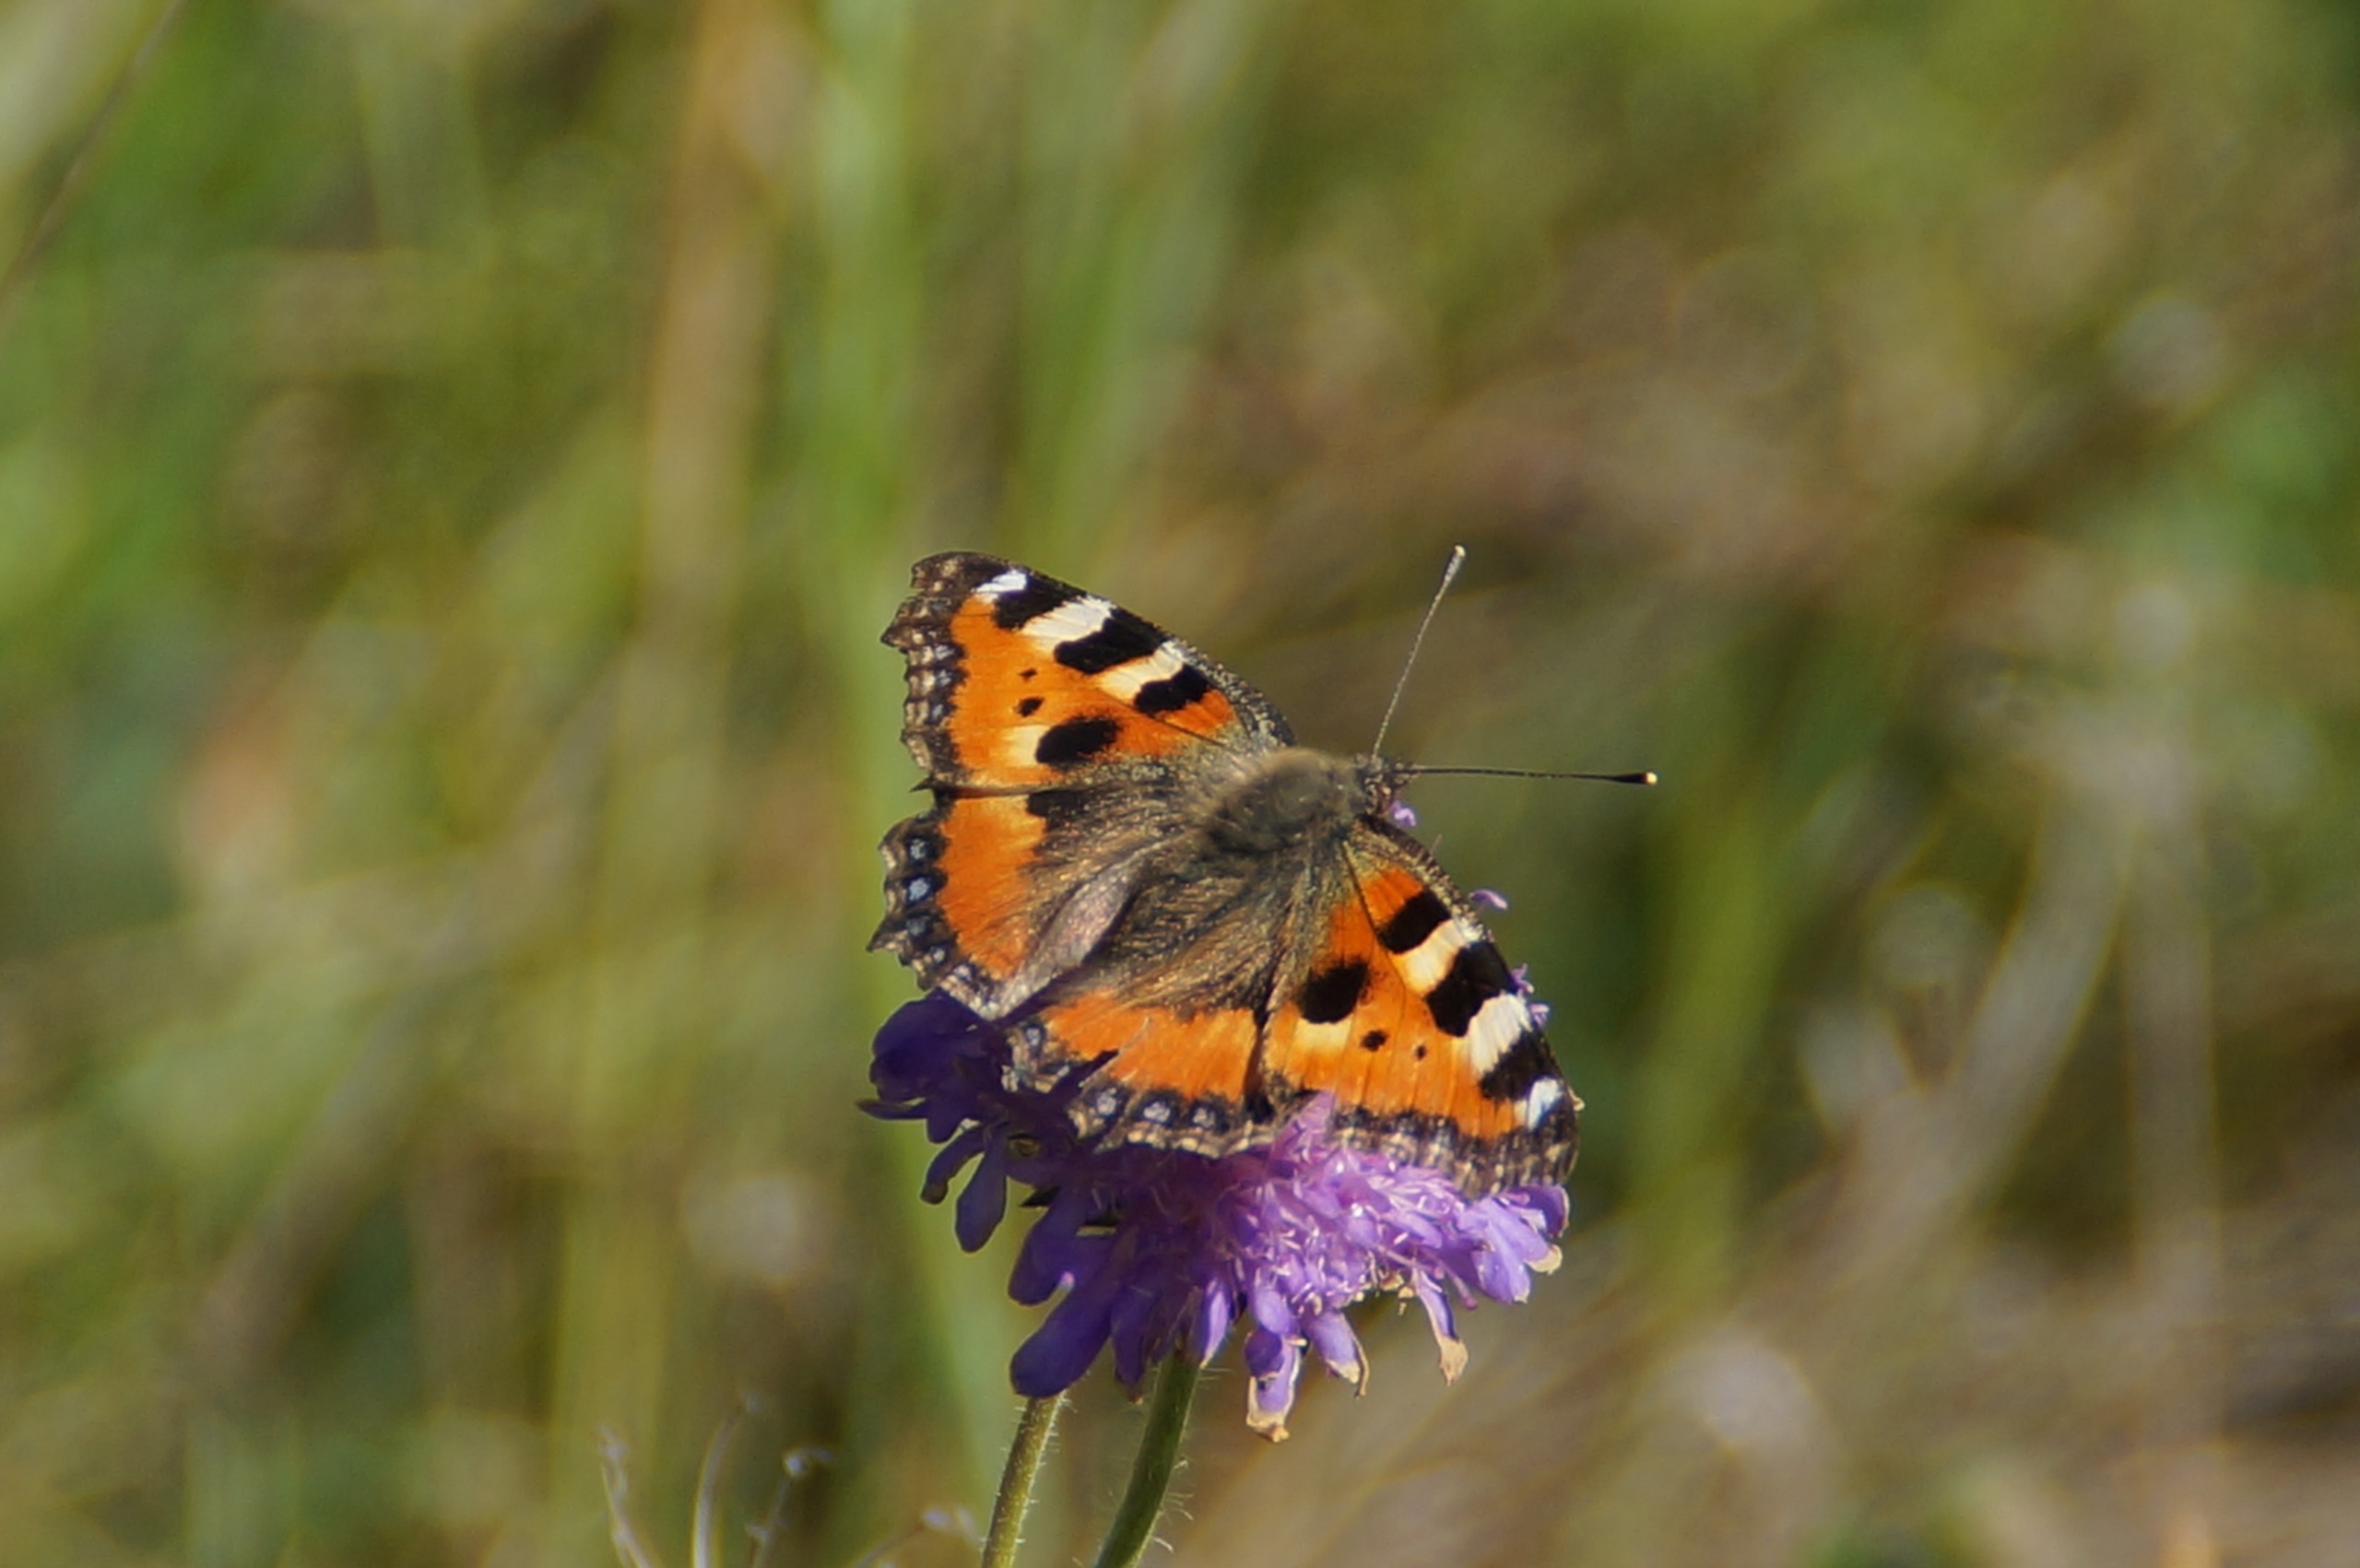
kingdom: Animalia
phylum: Arthropoda
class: Insecta
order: Lepidoptera
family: Nymphalidae
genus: Aglais
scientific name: Aglais urticae
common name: Nældens takvinge
